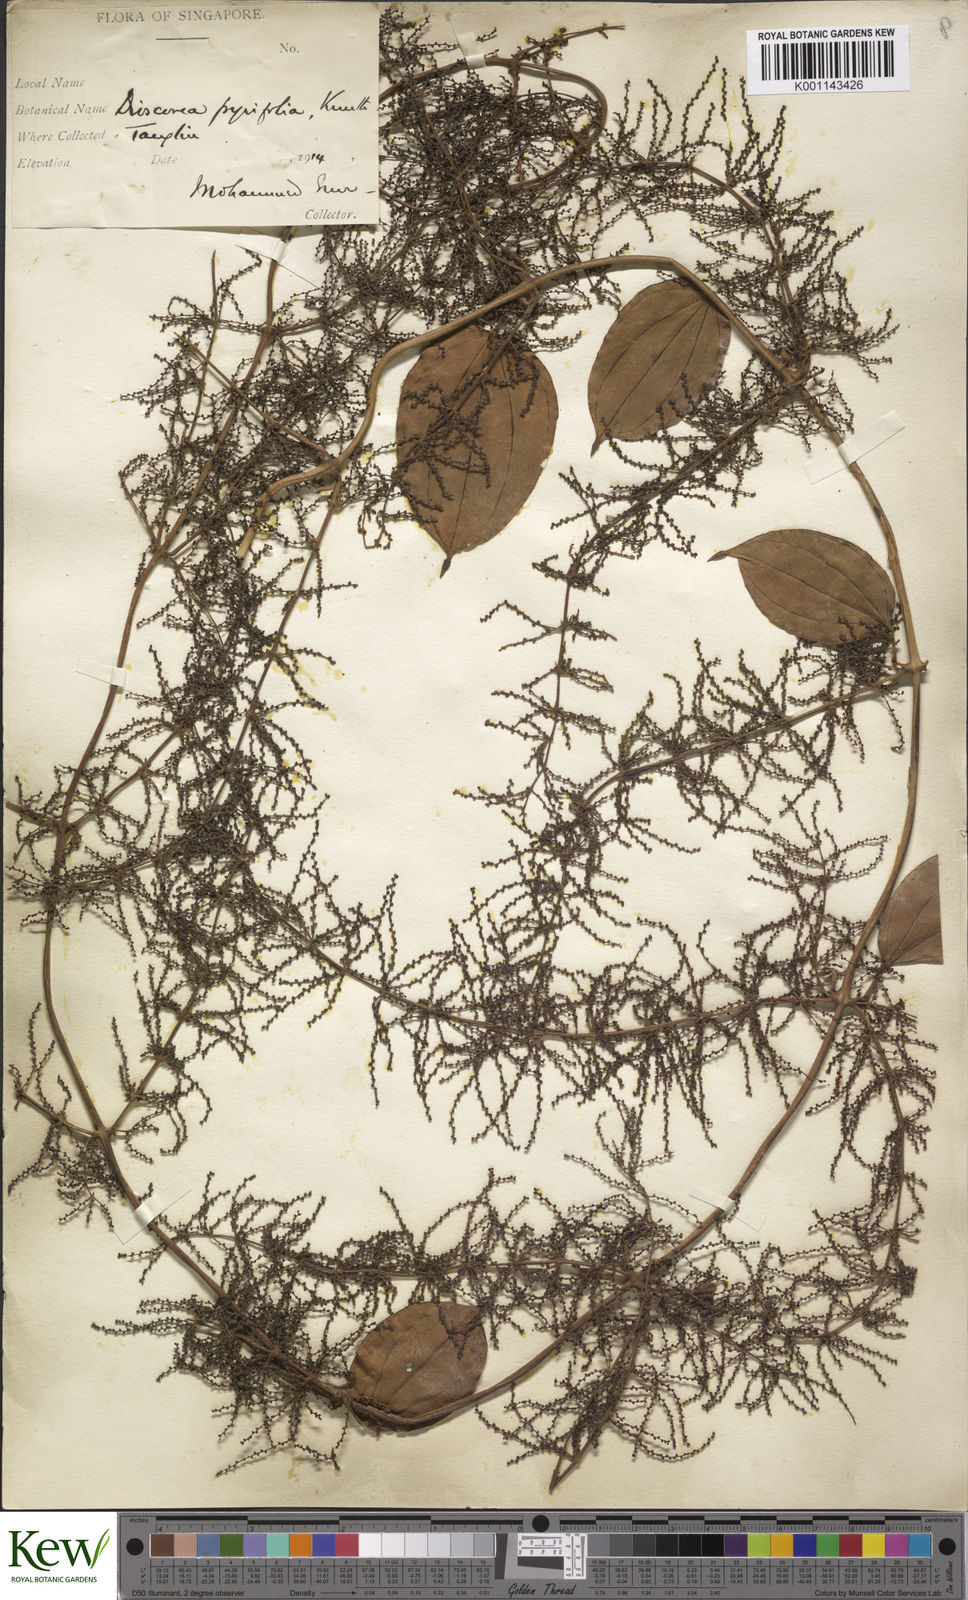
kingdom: Plantae
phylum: Tracheophyta
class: Liliopsida
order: Dioscoreales
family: Dioscoreaceae
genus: Dioscorea
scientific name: Dioscorea pyrifolia
